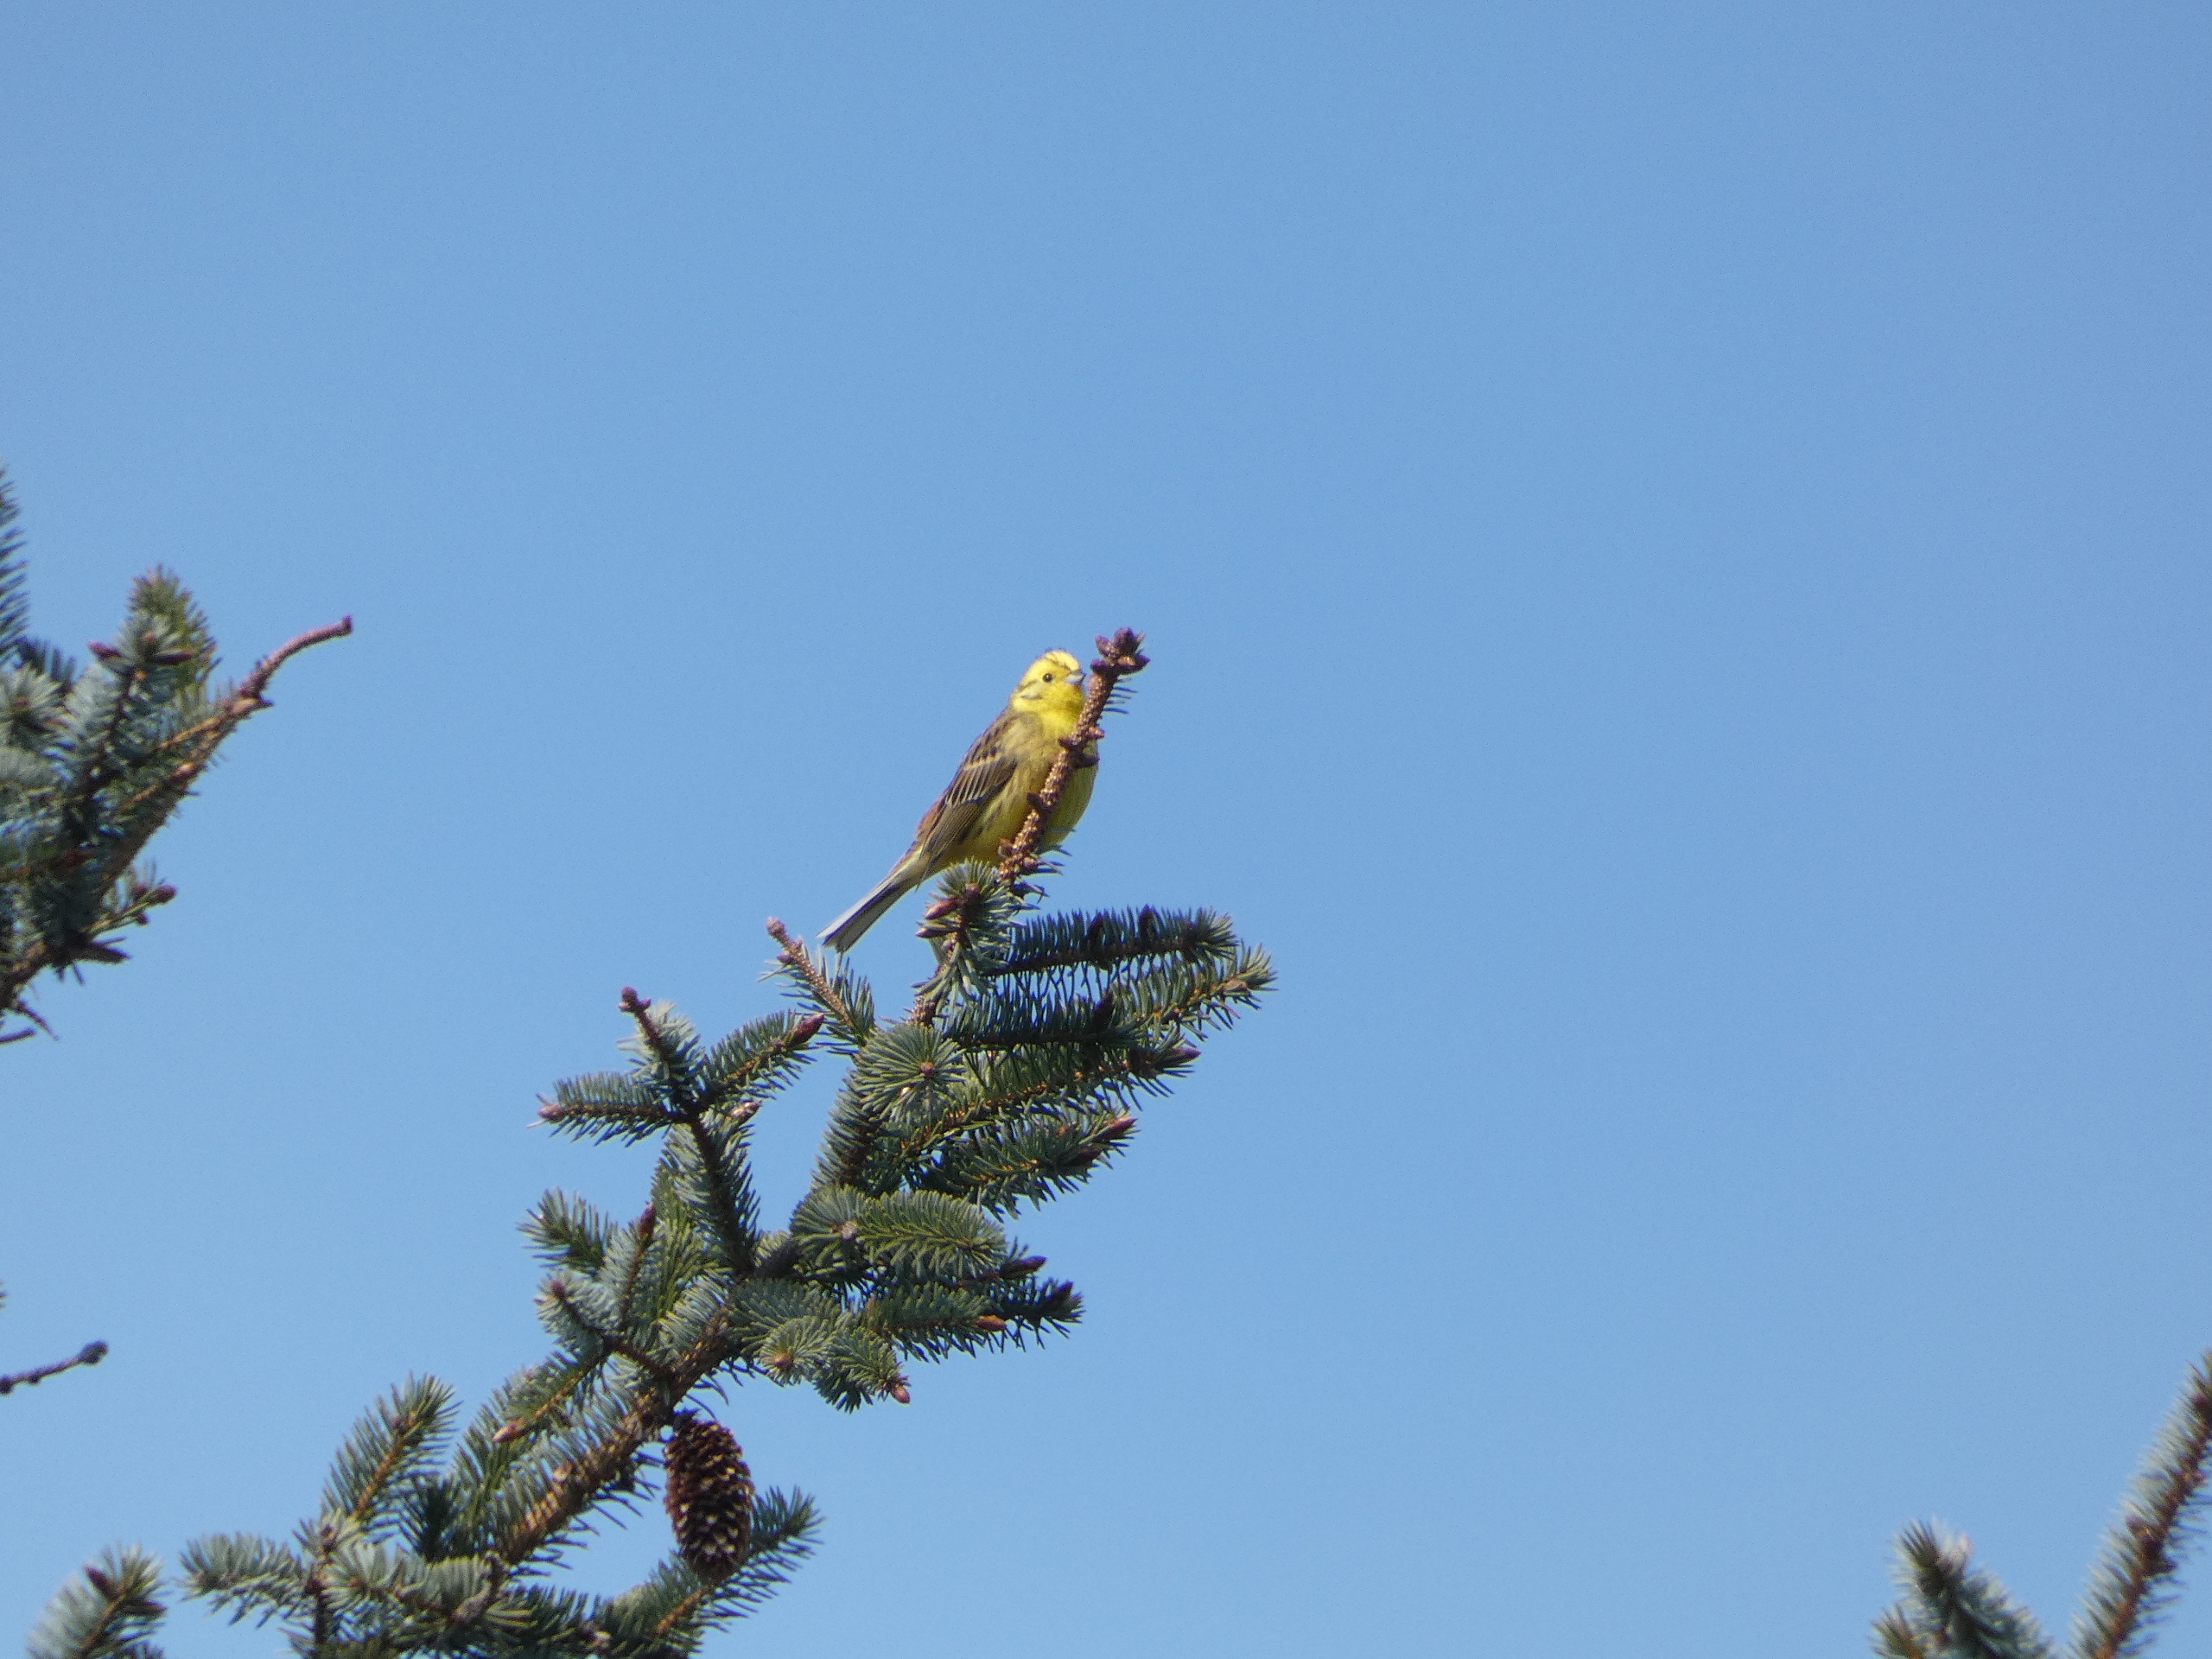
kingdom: Animalia
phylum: Chordata
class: Aves
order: Passeriformes
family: Emberizidae
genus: Emberiza
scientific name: Emberiza citrinella
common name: Gulspurv
